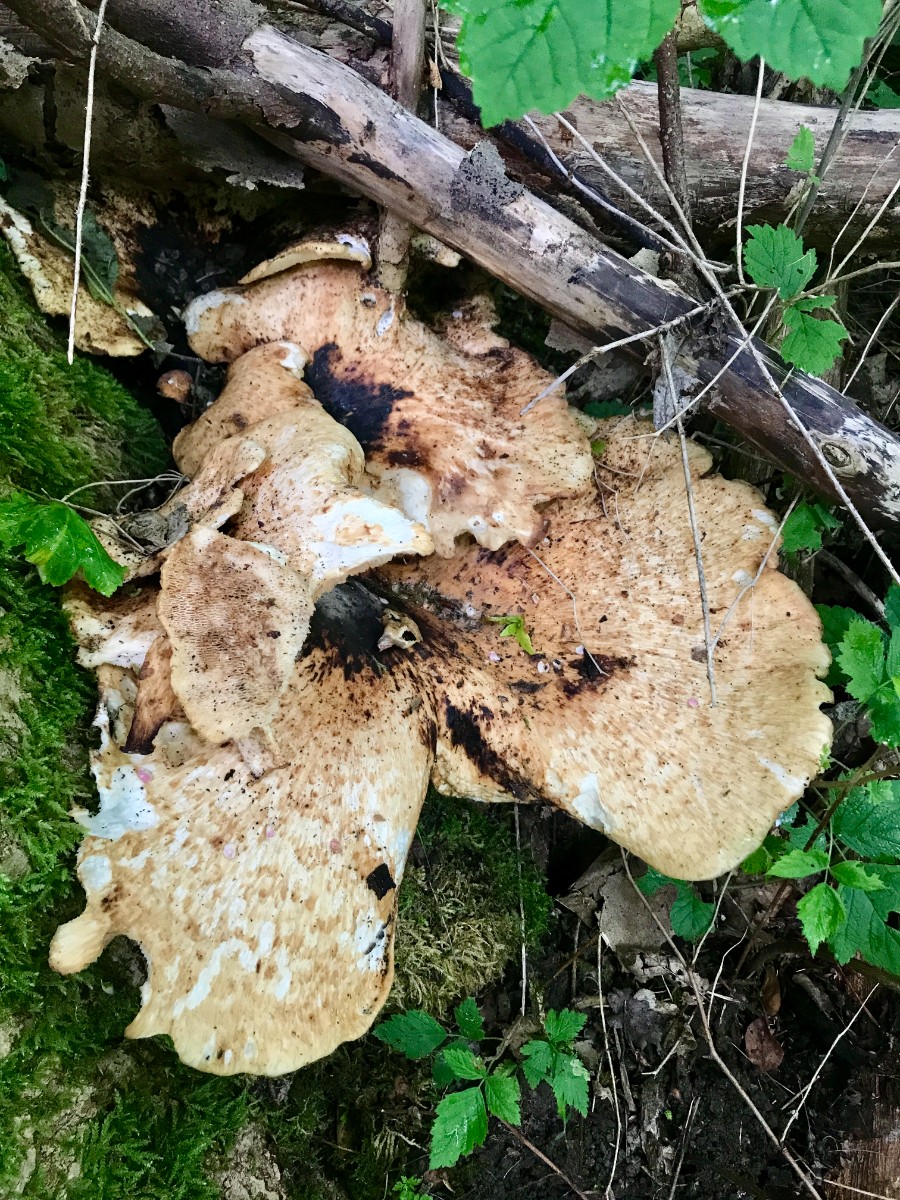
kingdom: Fungi
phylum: Basidiomycota
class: Agaricomycetes
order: Polyporales
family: Polyporaceae
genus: Cerioporus
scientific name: Cerioporus squamosus
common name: skællet stilkporesvamp
